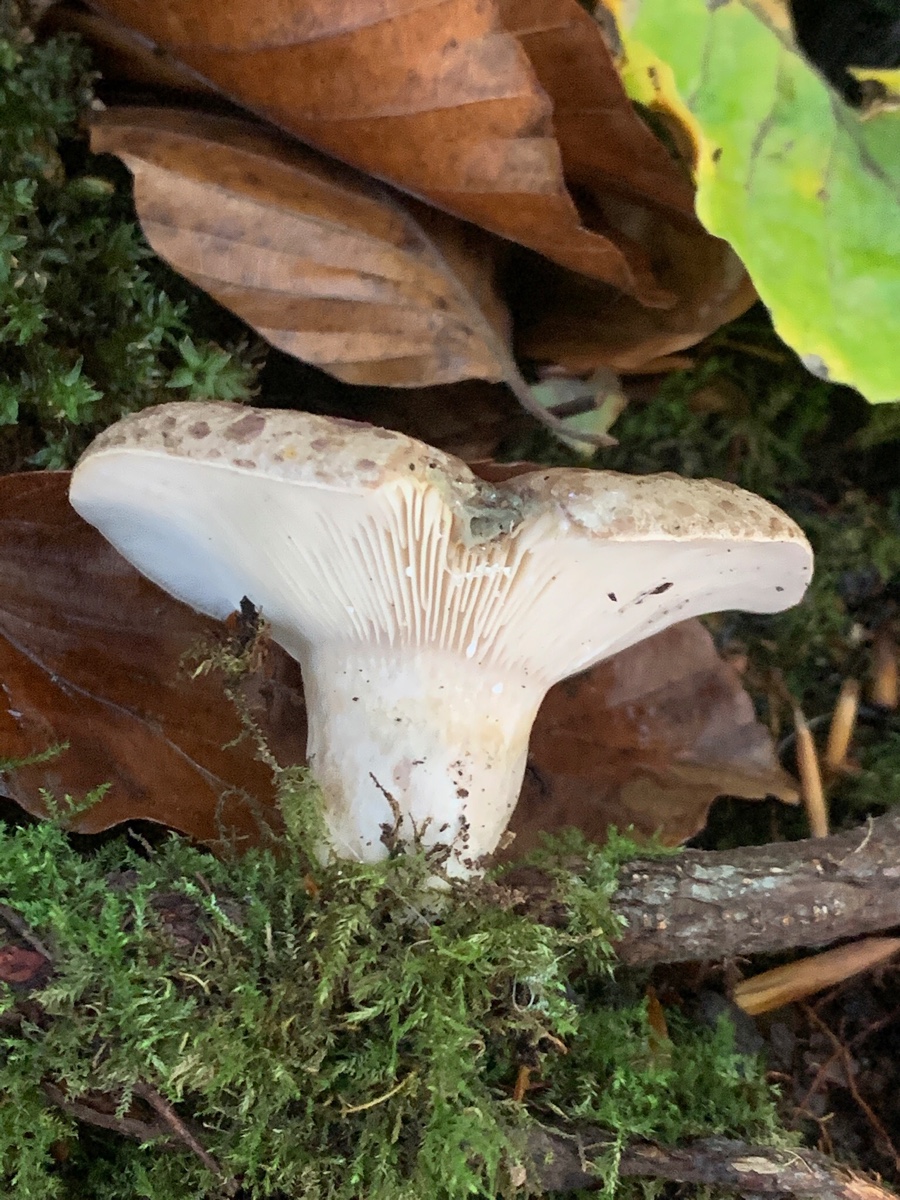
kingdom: Fungi
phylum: Basidiomycota
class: Agaricomycetes
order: Russulales
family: Russulaceae
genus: Lactarius
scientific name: Lactarius blennius
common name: dråbeplettet mælkehat
